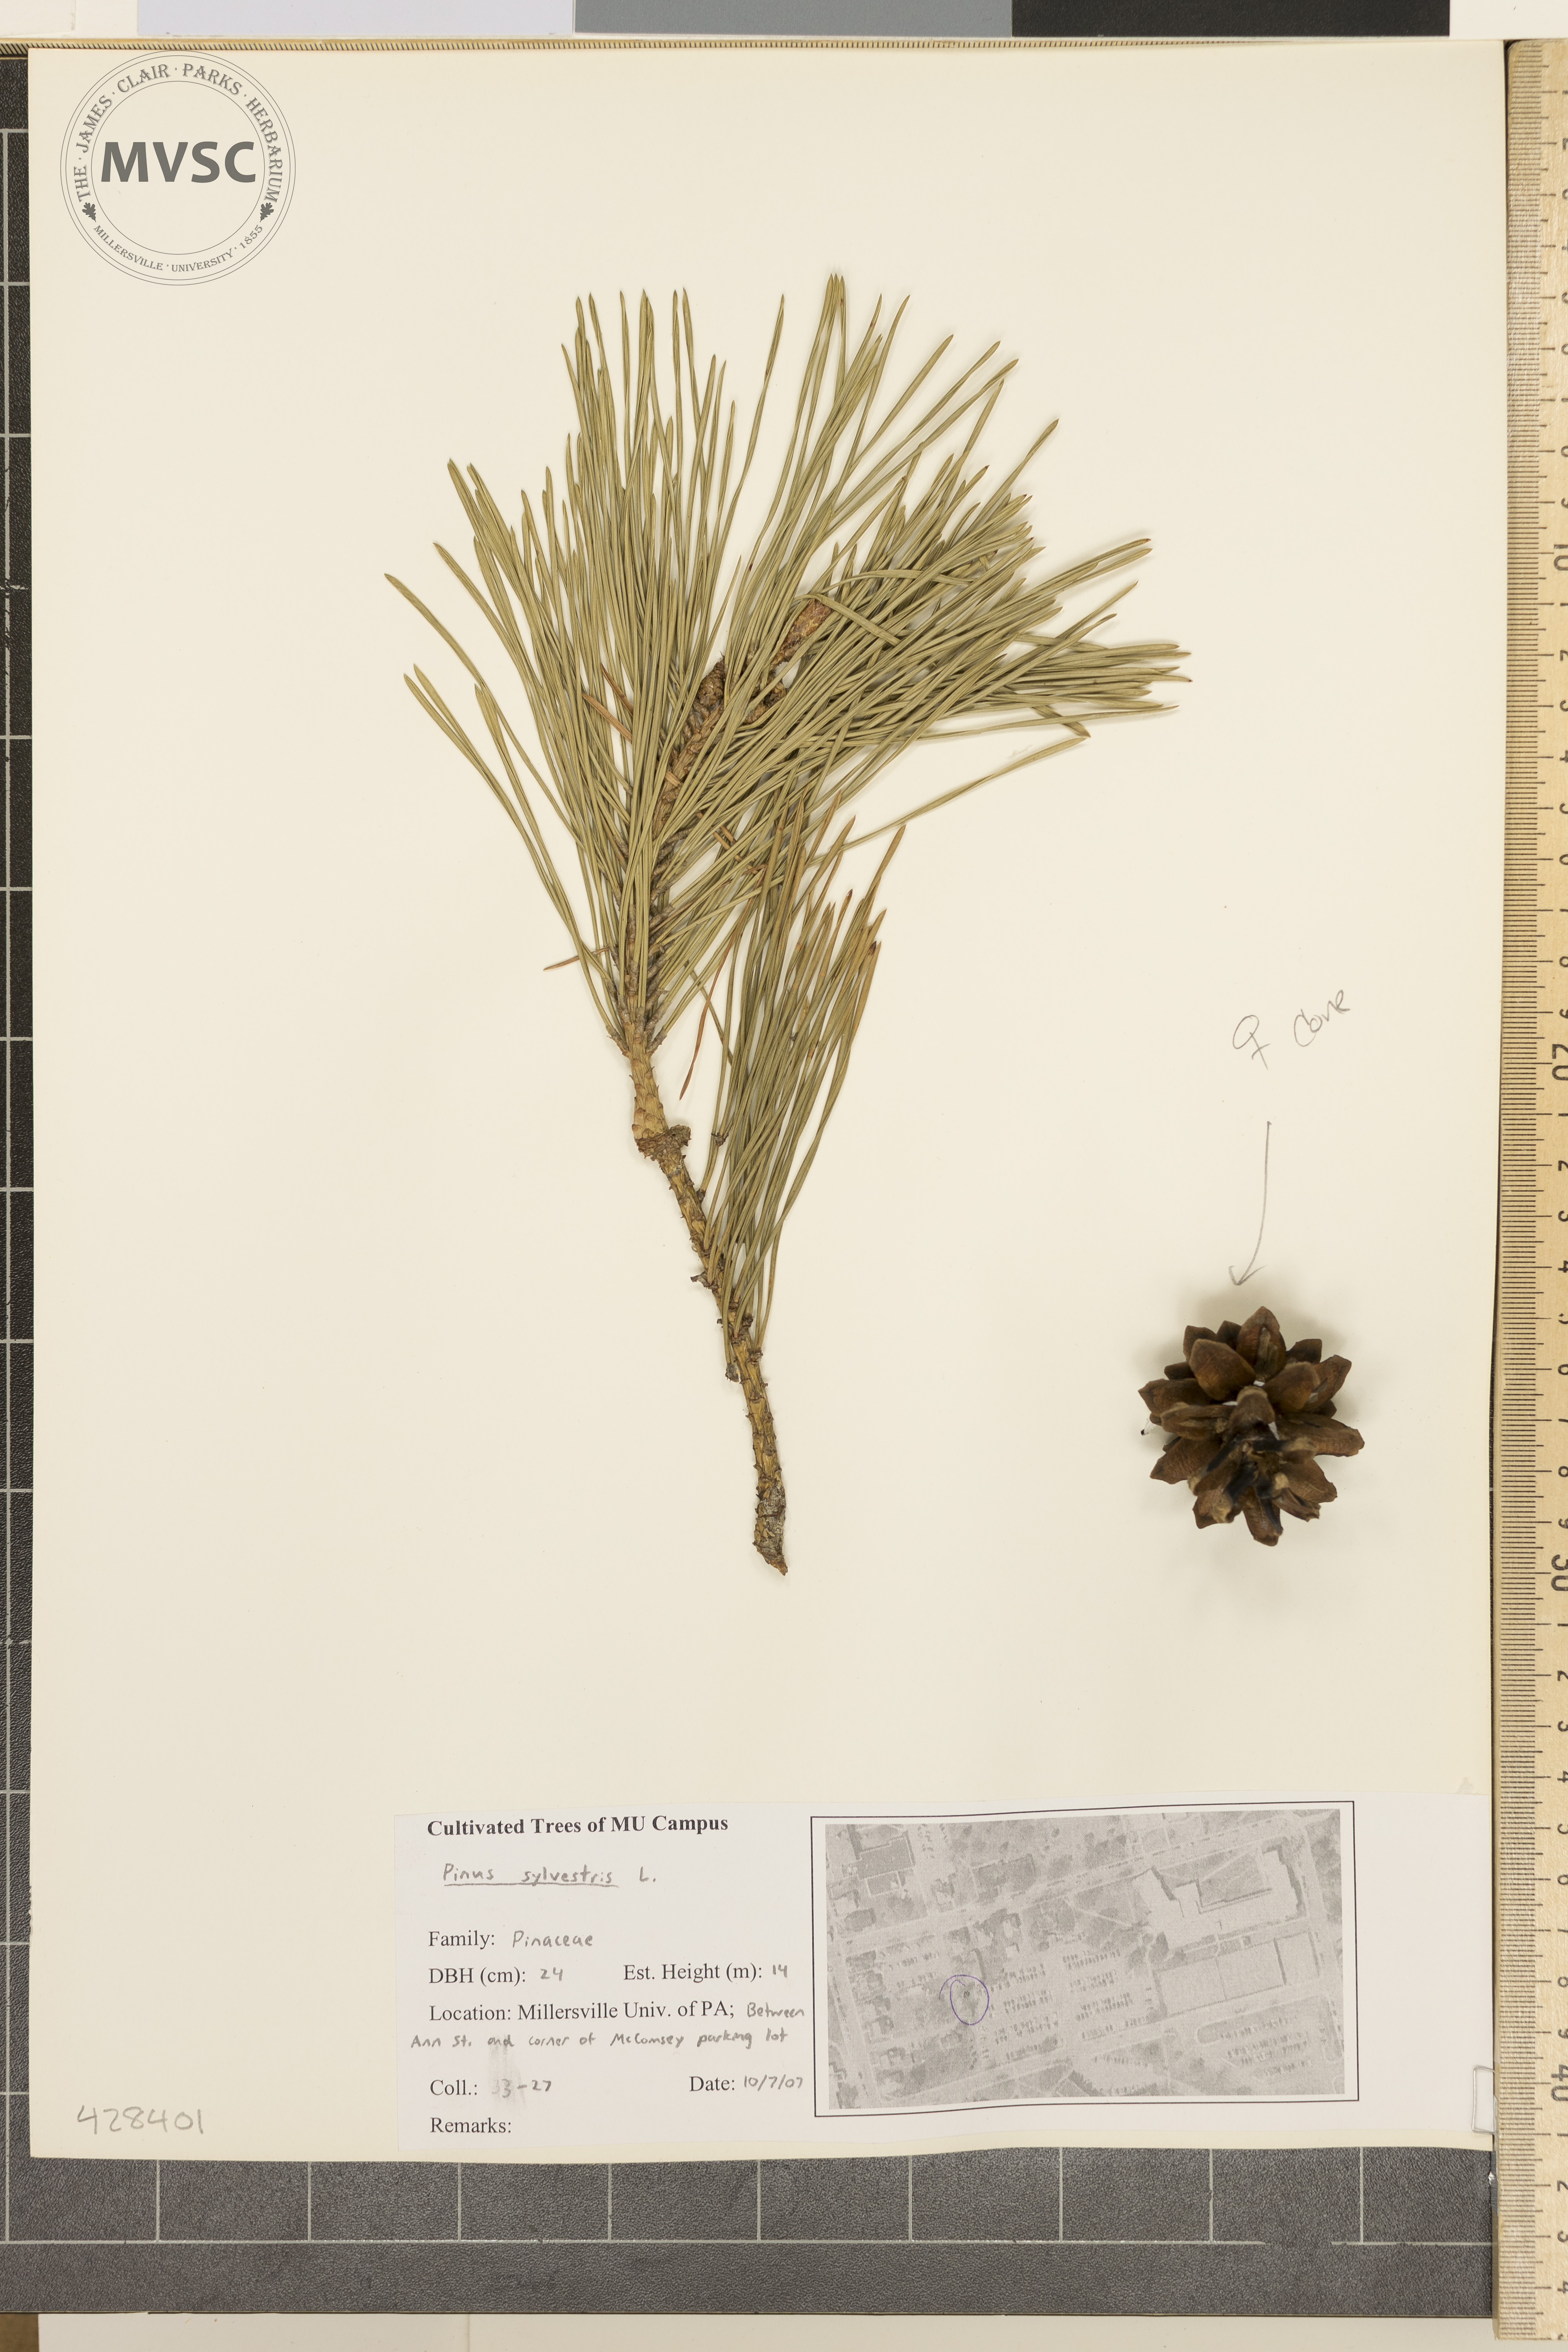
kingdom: Plantae
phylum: Tracheophyta
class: Pinopsida
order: Pinales
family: Pinaceae
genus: Pinus
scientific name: Pinus sylvestris
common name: Scots pine
